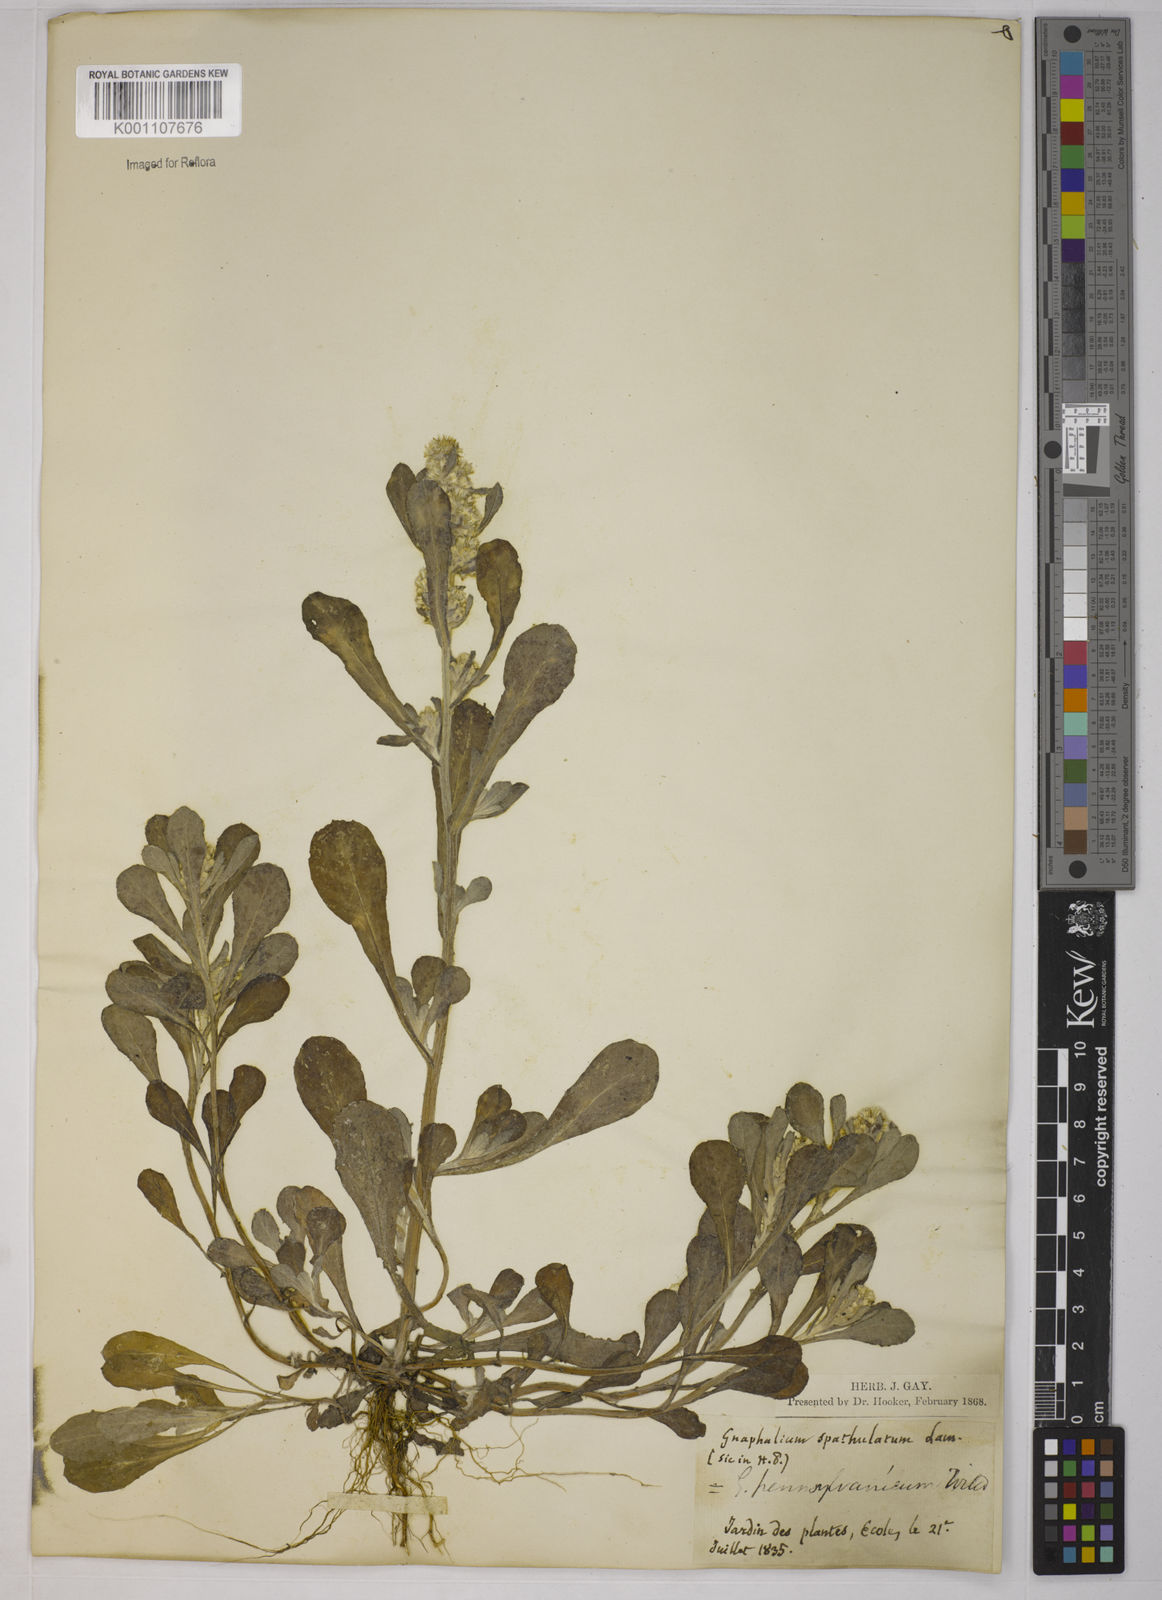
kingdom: Plantae
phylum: Tracheophyta
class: Magnoliopsida
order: Asterales
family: Asteraceae
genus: Gamochaeta
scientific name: Gamochaeta pensylvanica
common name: Pennsylvania everlasting
